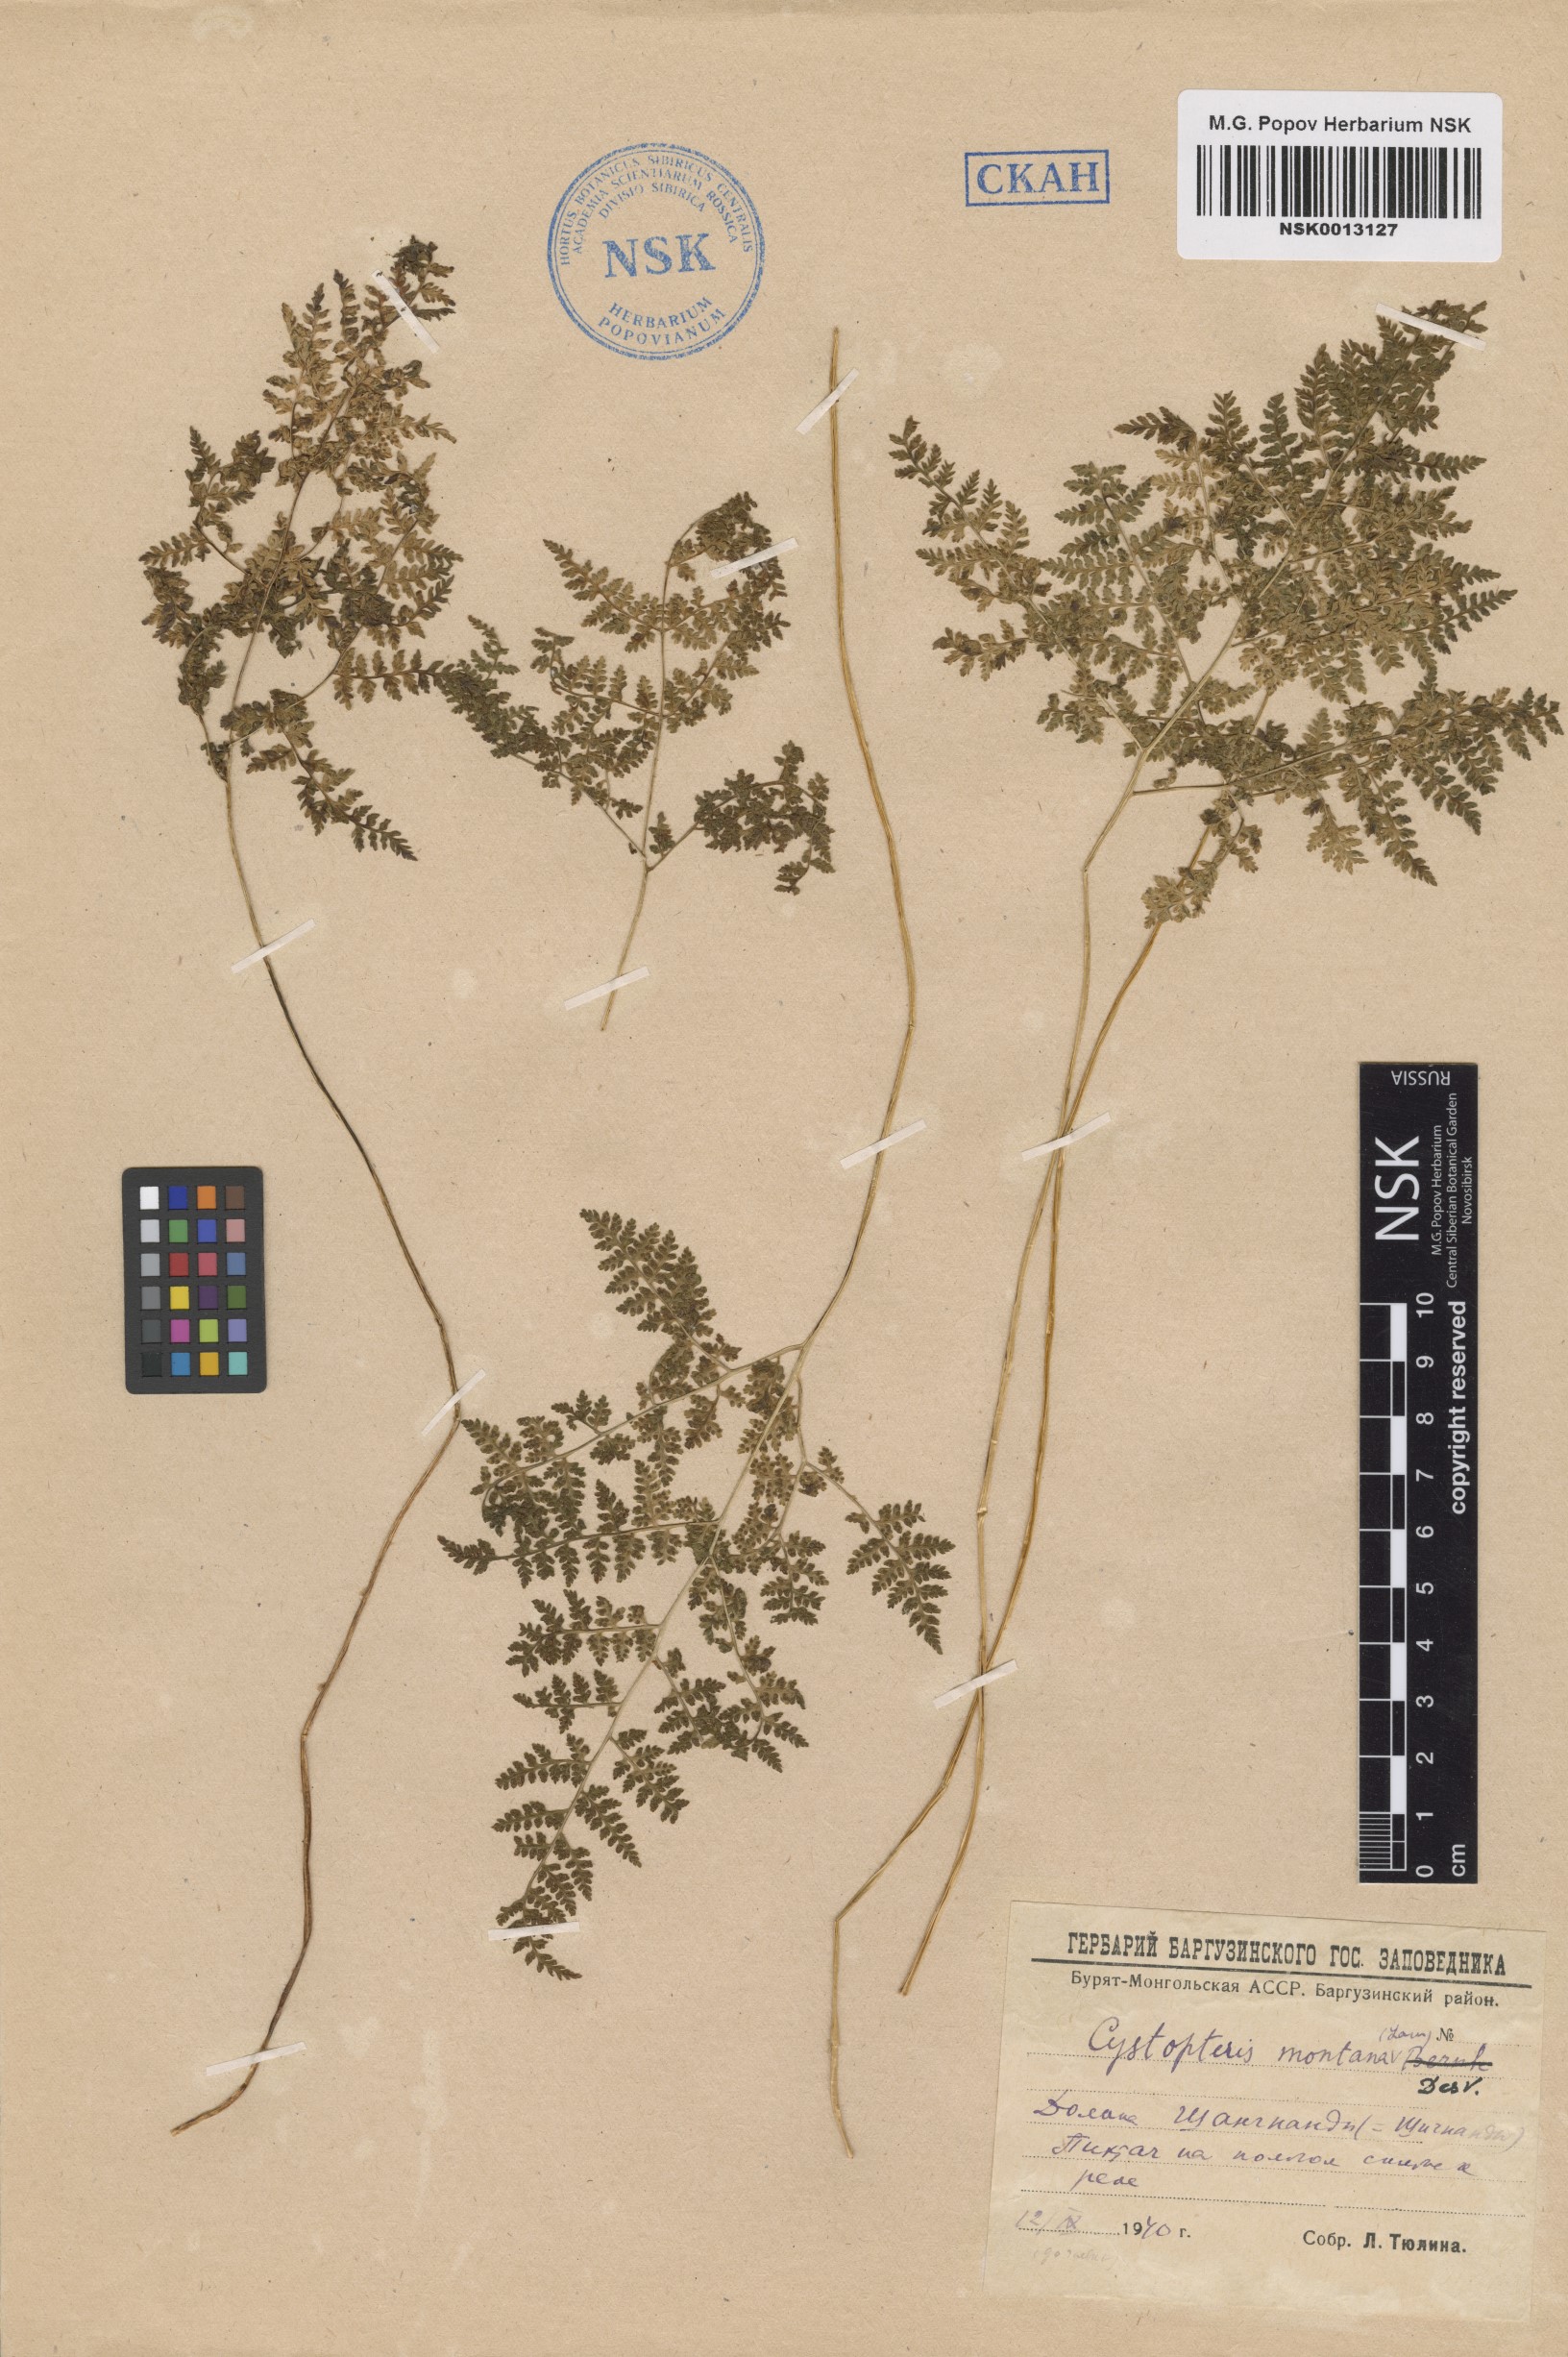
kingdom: Plantae
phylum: Tracheophyta
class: Polypodiopsida
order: Polypodiales
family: Cystopteridaceae
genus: Cystopteris
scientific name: Cystopteris montana
